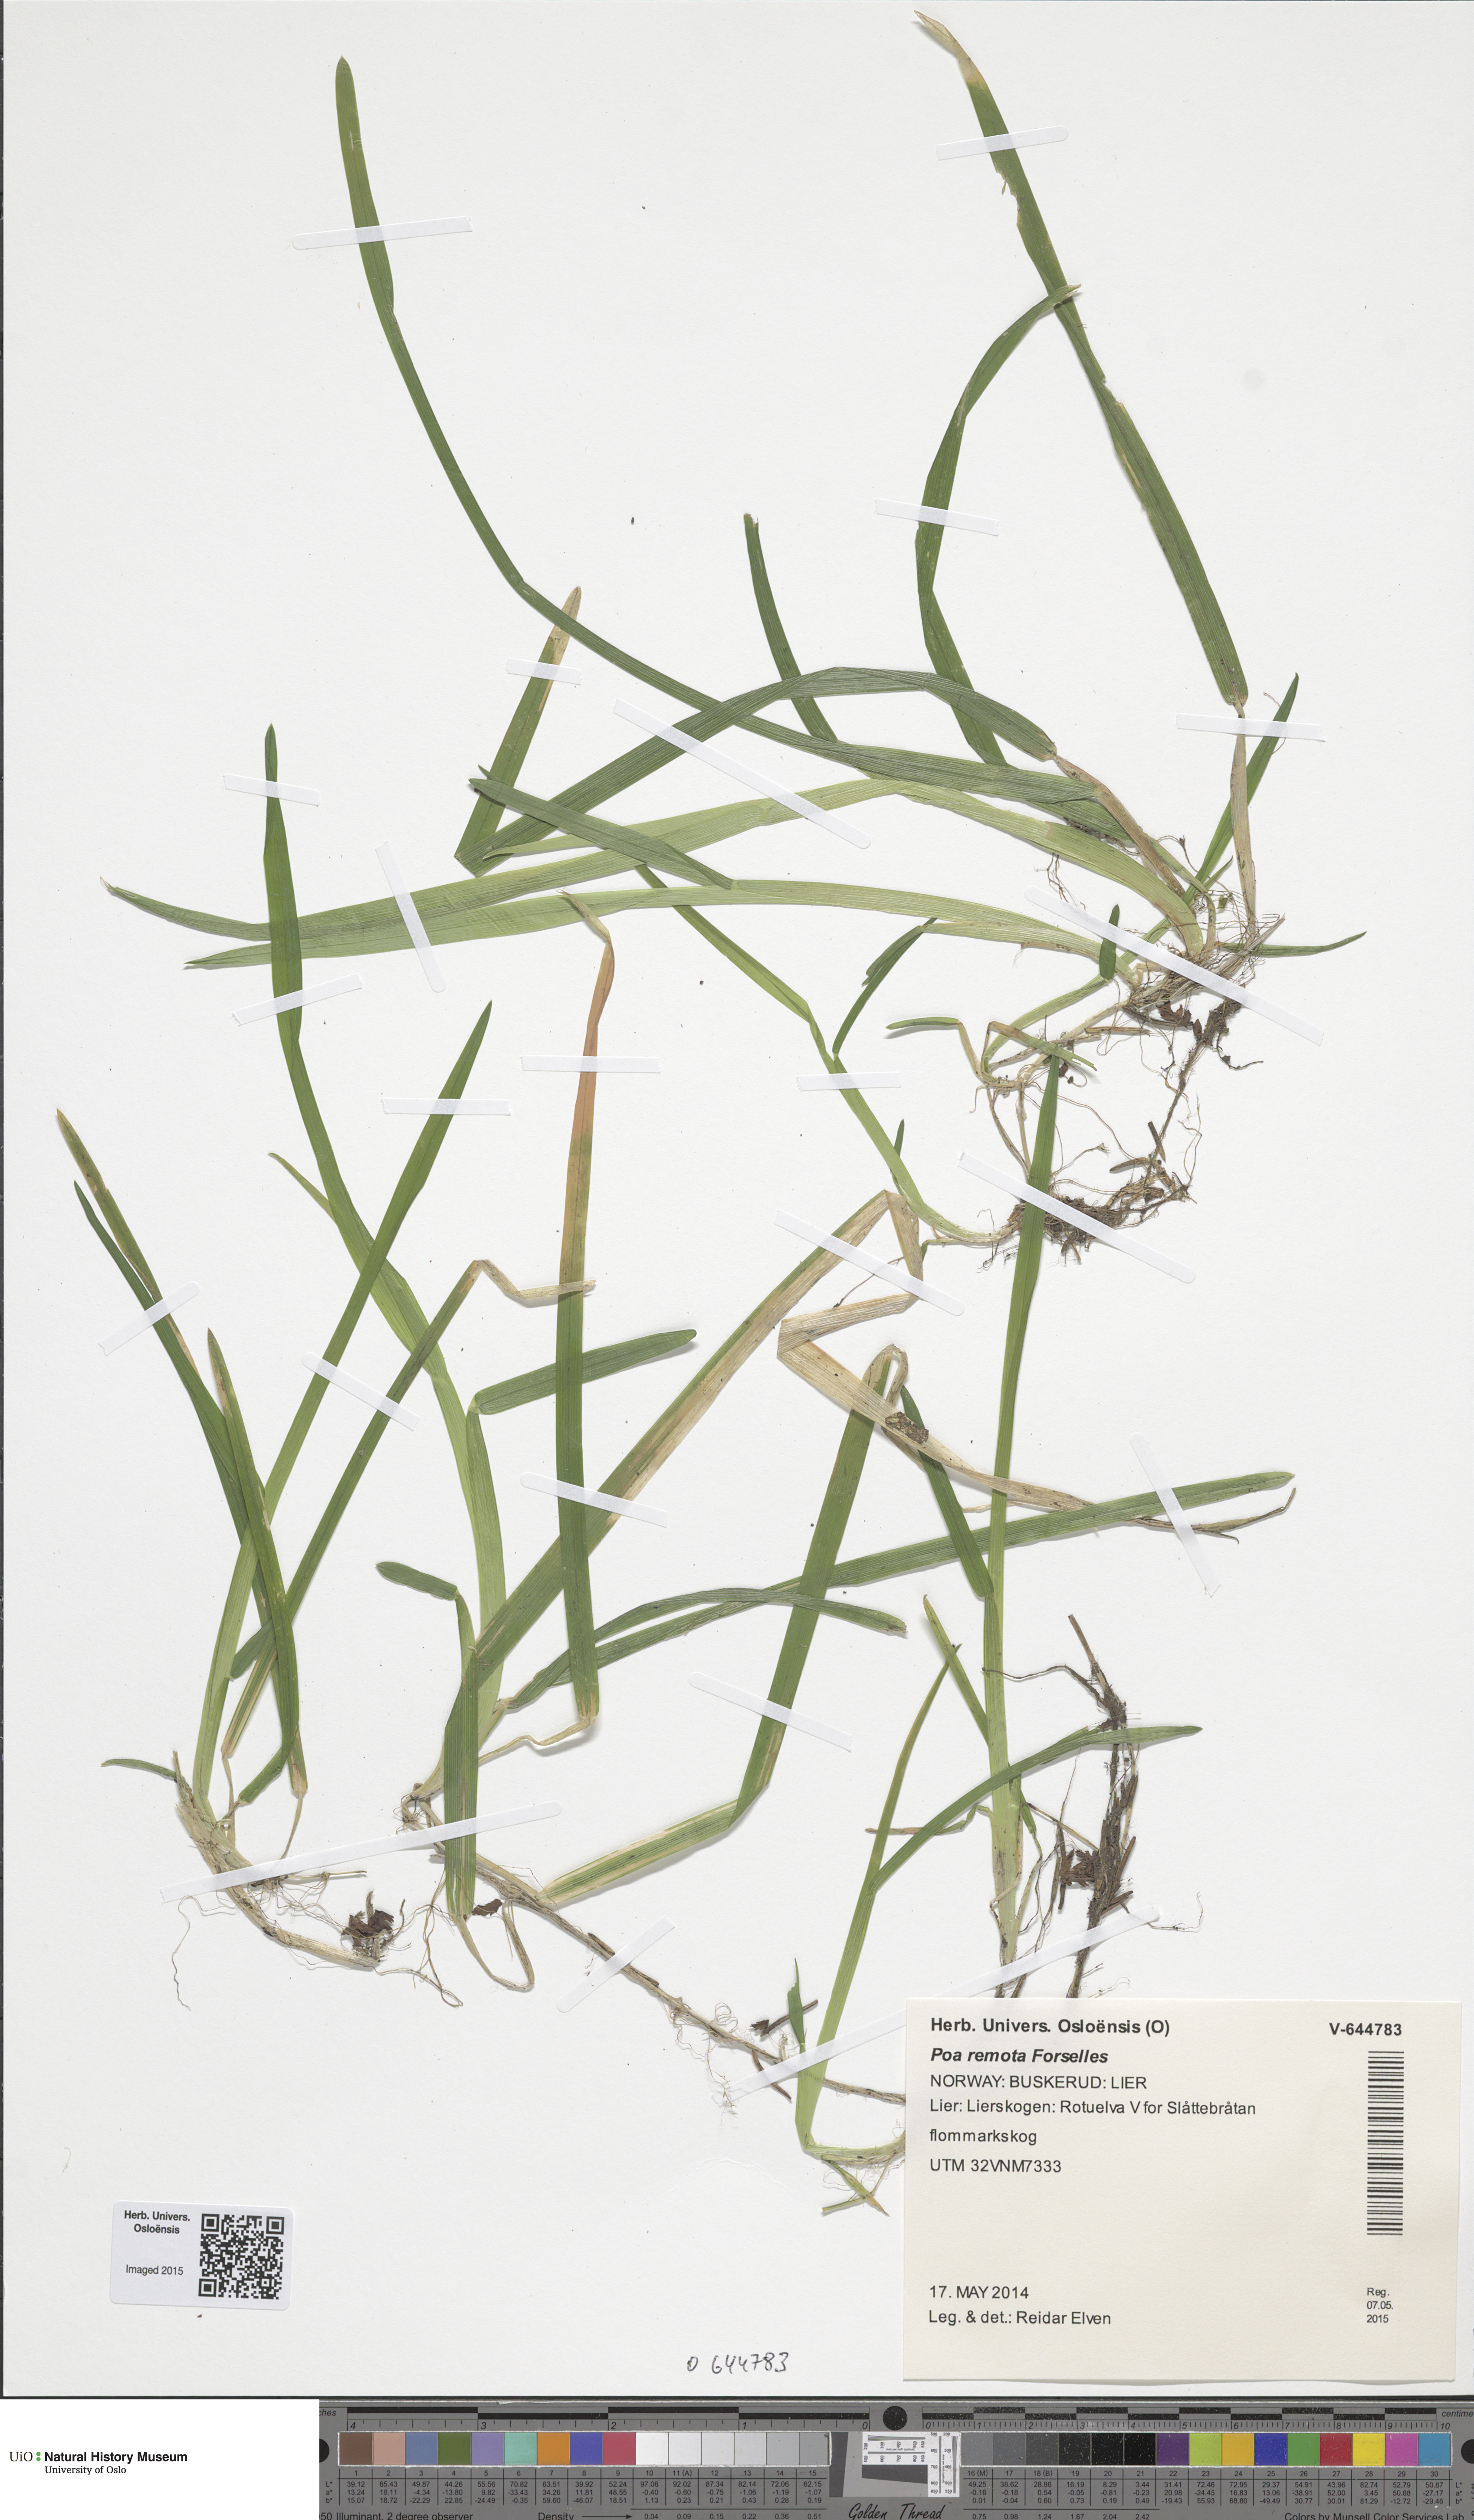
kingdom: Plantae
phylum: Tracheophyta
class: Liliopsida
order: Poales
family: Poaceae
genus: Poa
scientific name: Poa remota
